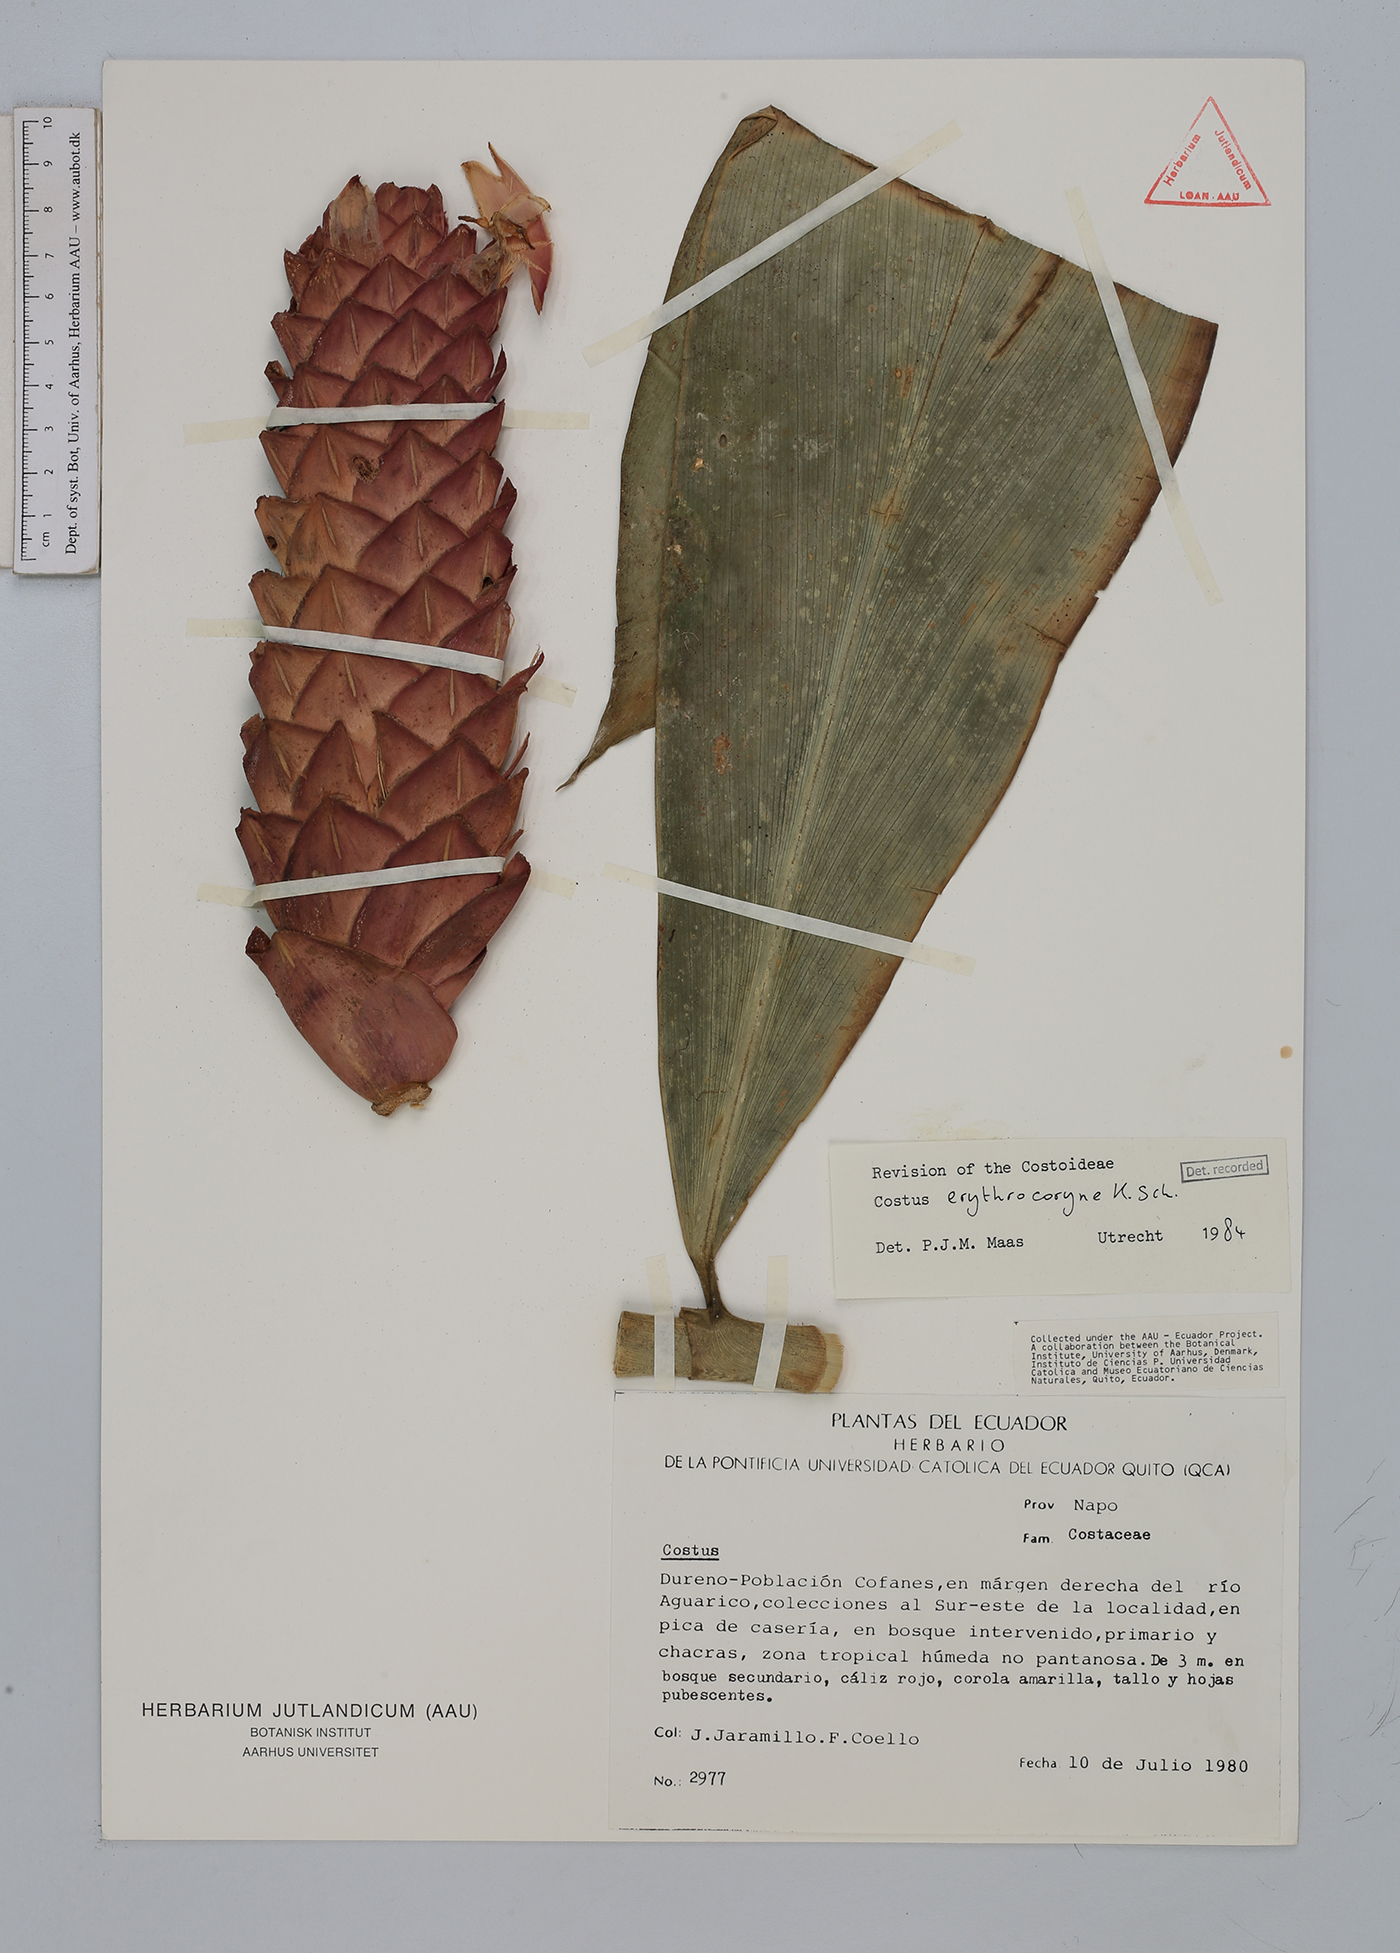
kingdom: Plantae
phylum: Tracheophyta
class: Liliopsida
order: Zingiberales
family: Costaceae
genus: Costus
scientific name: Costus erythrocoryne
